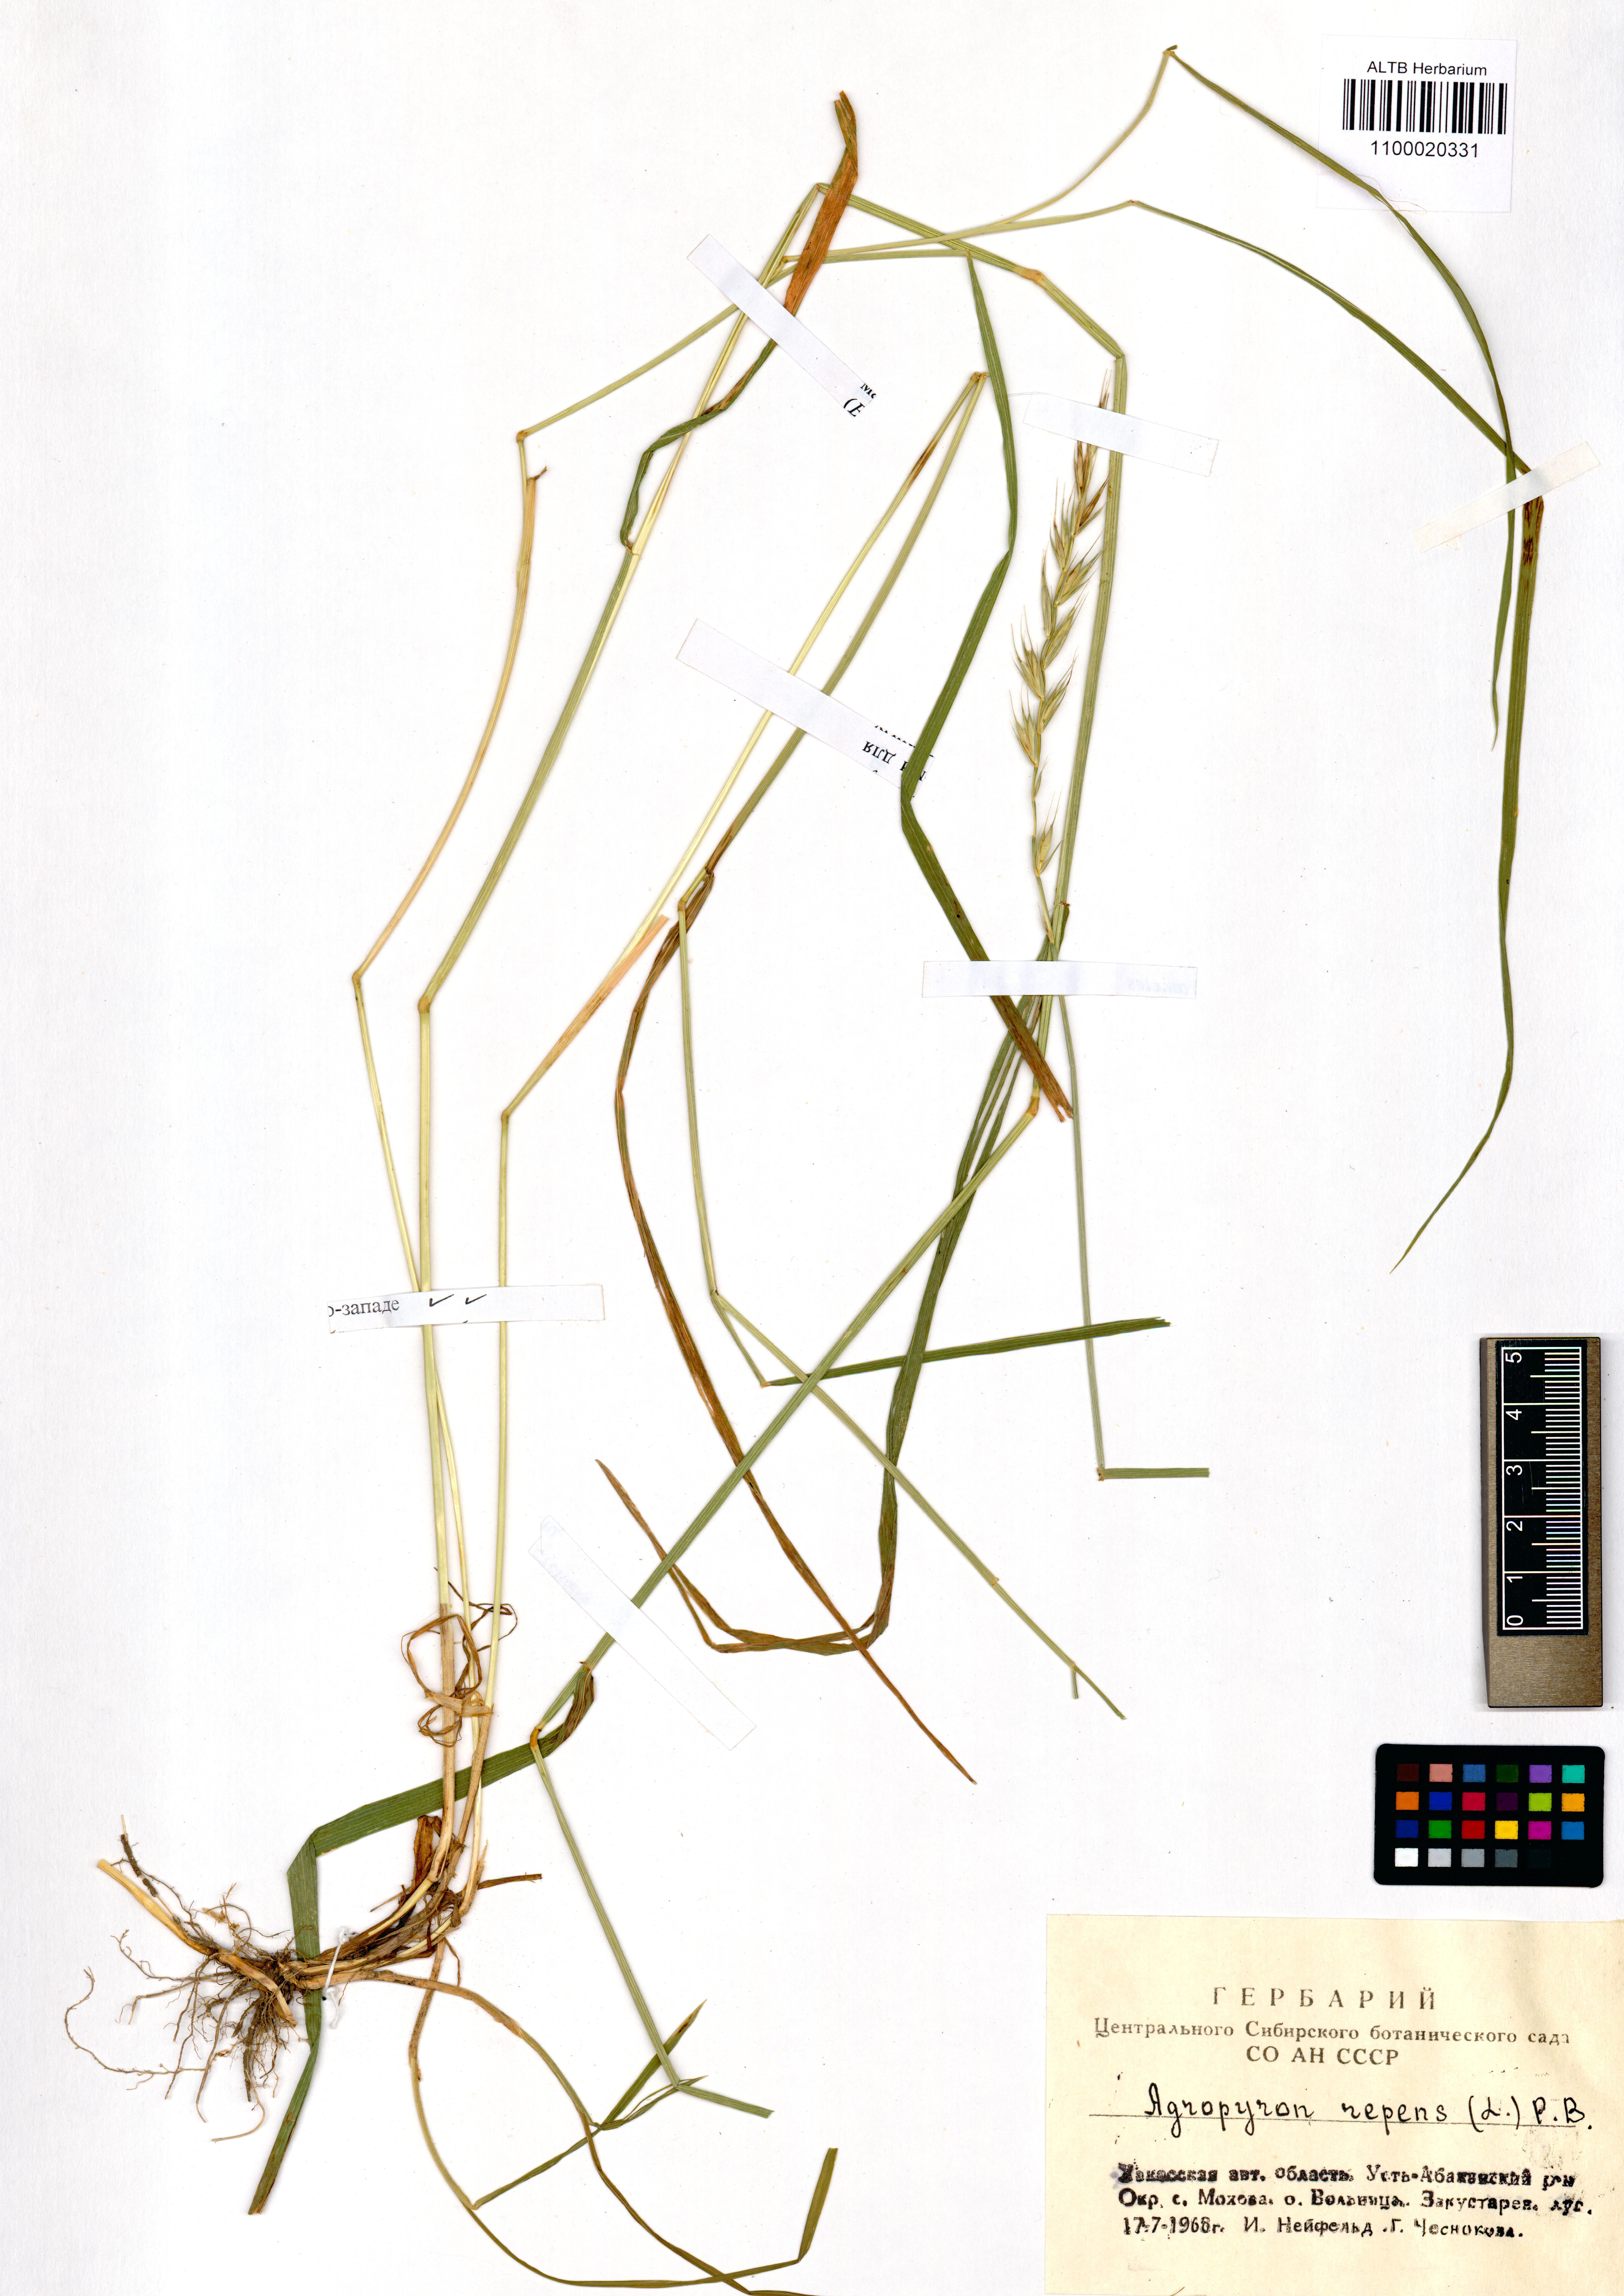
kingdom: Plantae
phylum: Tracheophyta
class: Liliopsida
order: Poales
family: Poaceae
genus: Elymus
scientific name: Elymus repens
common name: Quackgrass
